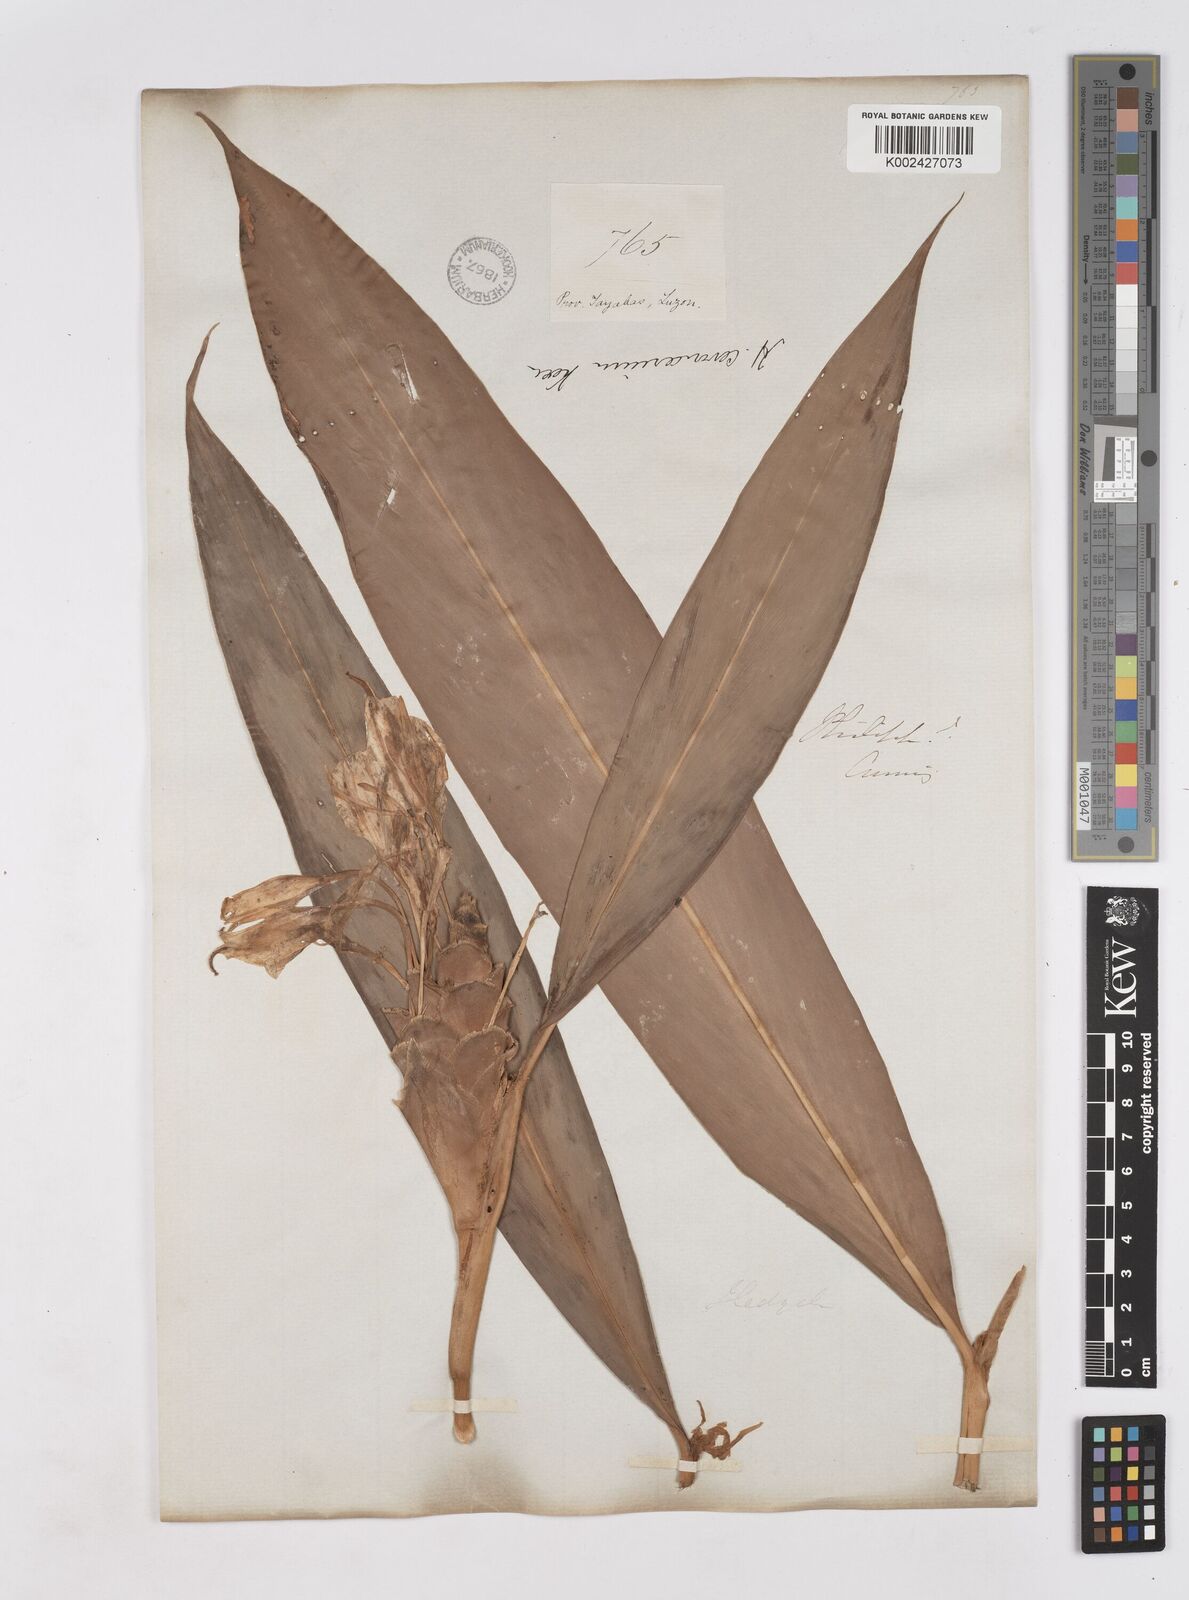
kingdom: Plantae
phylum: Tracheophyta
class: Liliopsida
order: Zingiberales
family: Zingiberaceae
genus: Hedychium
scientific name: Hedychium coronarium
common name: White garland-lily
